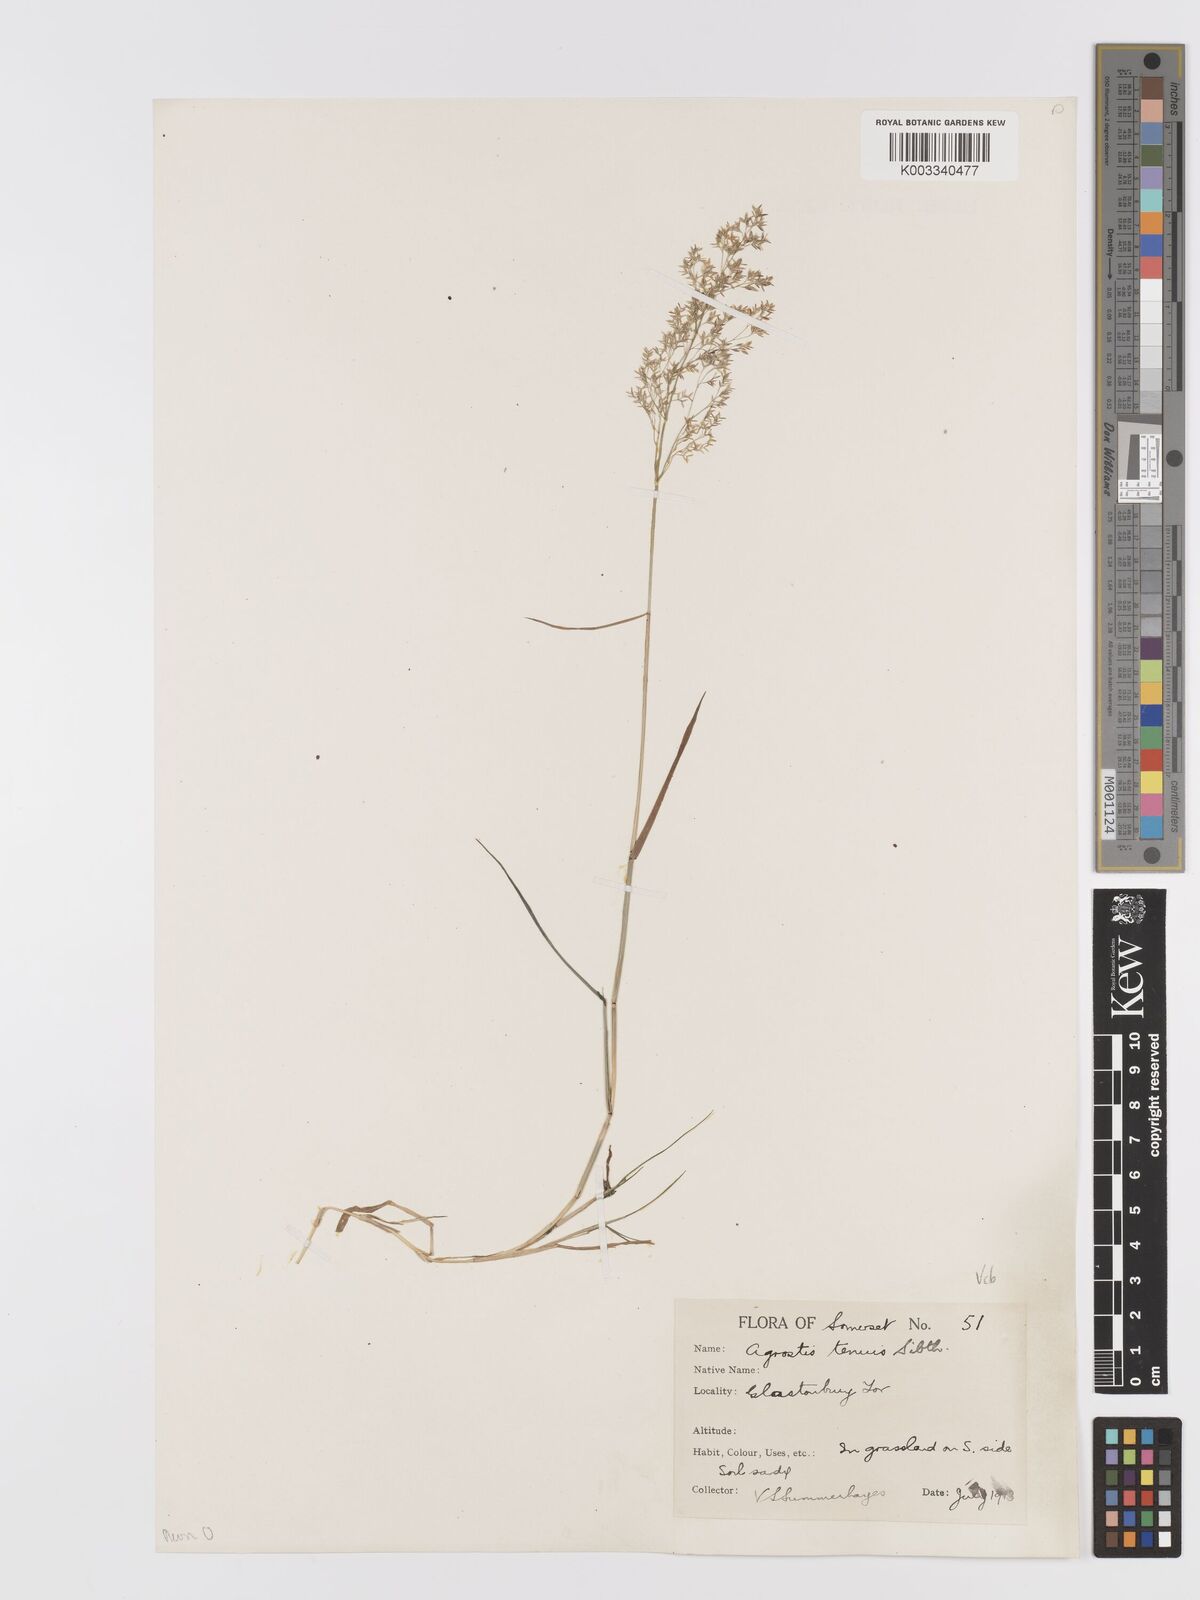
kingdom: Plantae
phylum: Tracheophyta
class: Liliopsida
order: Poales
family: Poaceae
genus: Agrostis
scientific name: Agrostis capillaris
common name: Colonial bentgrass
